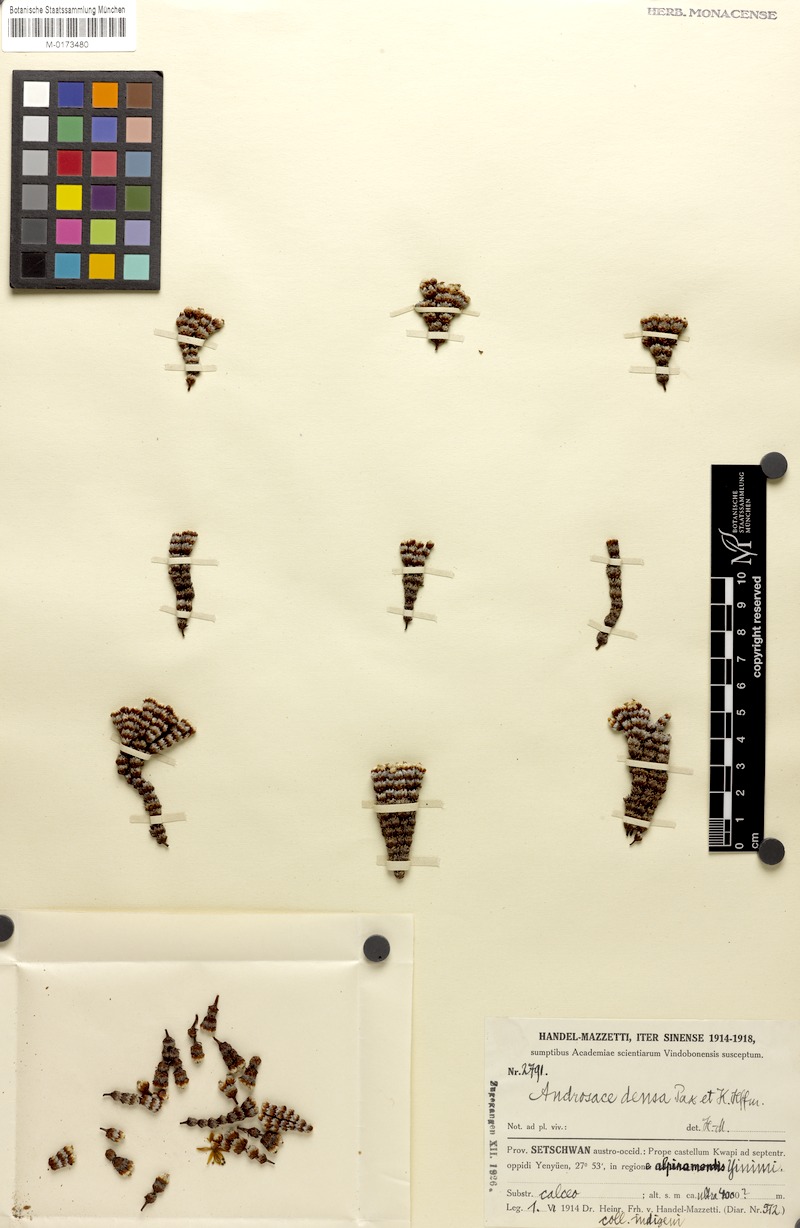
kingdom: Plantae
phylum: Tracheophyta
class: Magnoliopsida
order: Ericales
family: Primulaceae
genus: Androsace
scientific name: Androsace tapete
